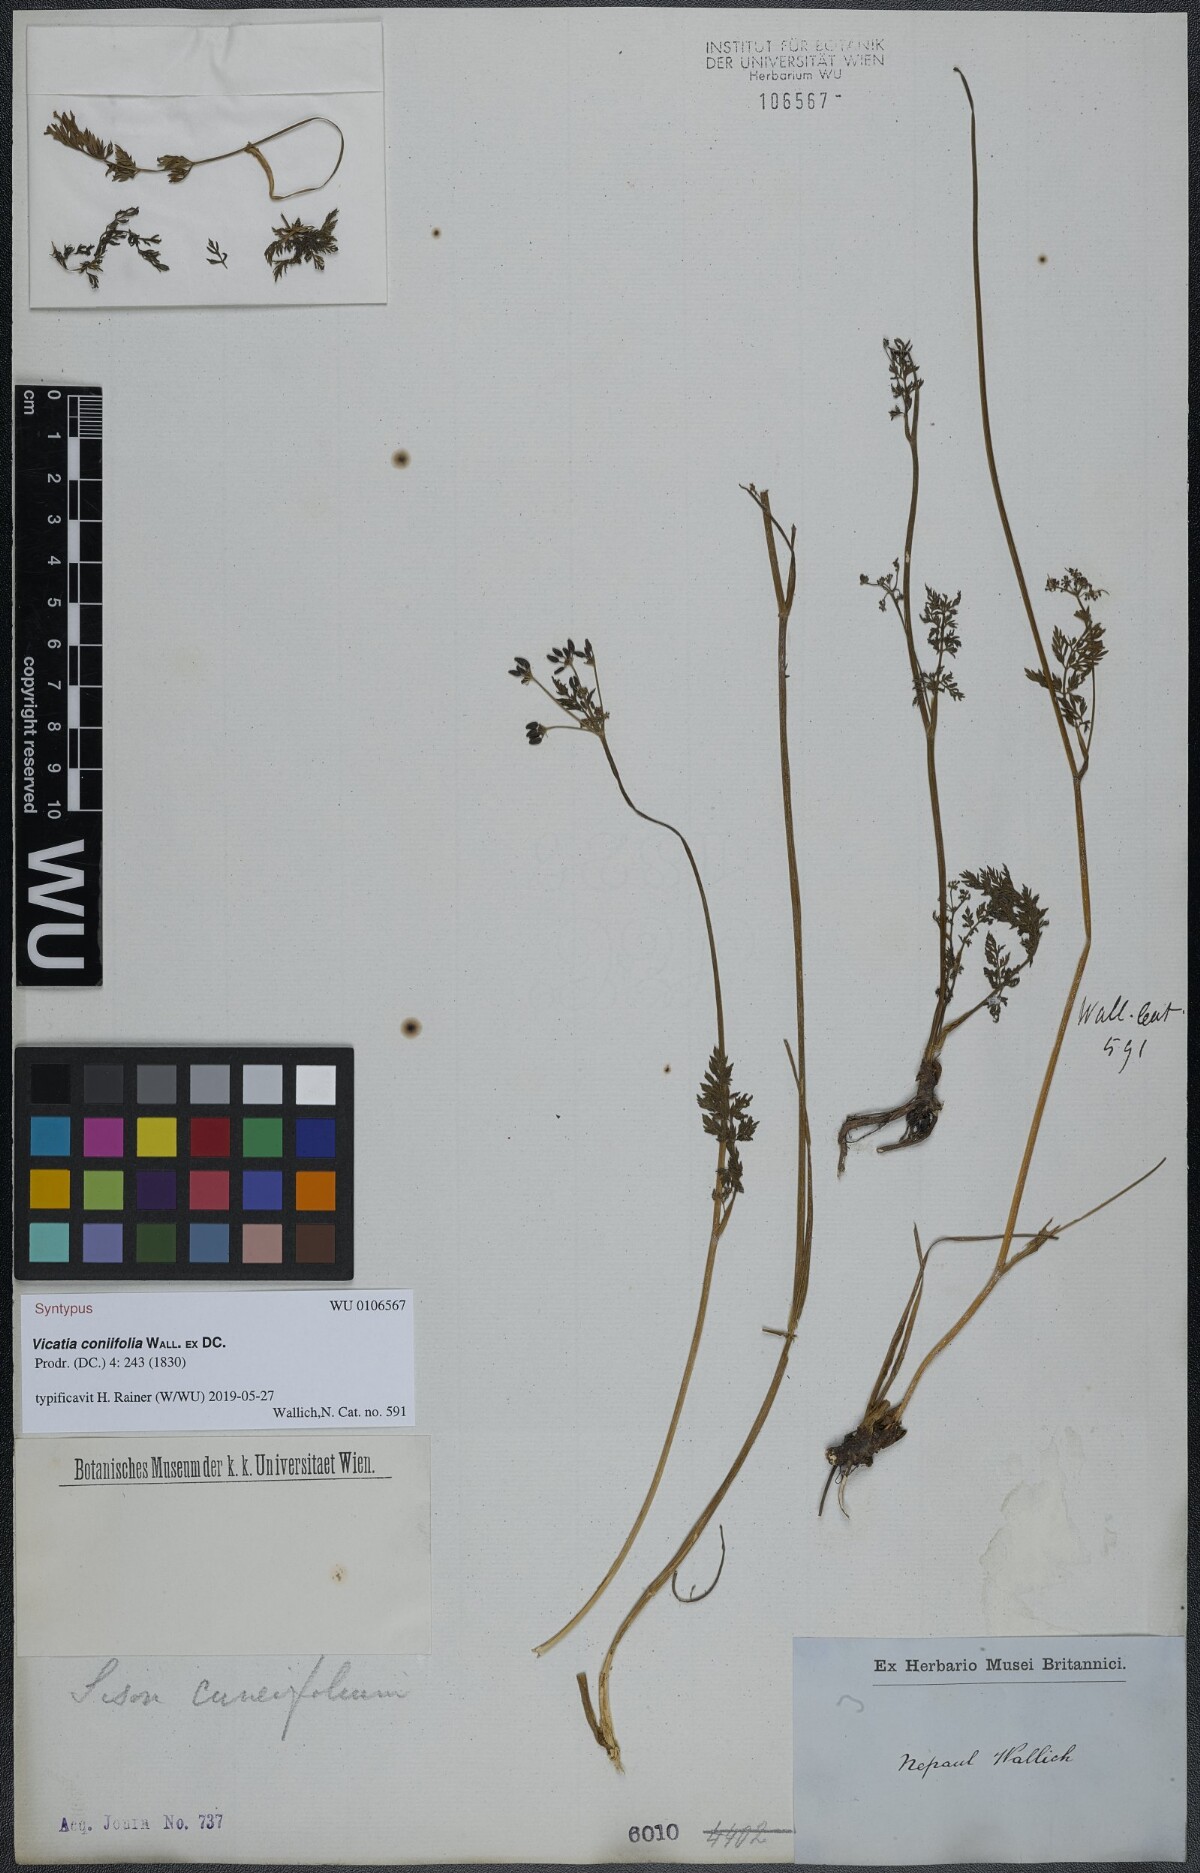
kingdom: Plantae
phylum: Tracheophyta
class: Magnoliopsida
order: Apiales
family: Apiaceae
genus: Vicatia
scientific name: Vicatia coniifolia
